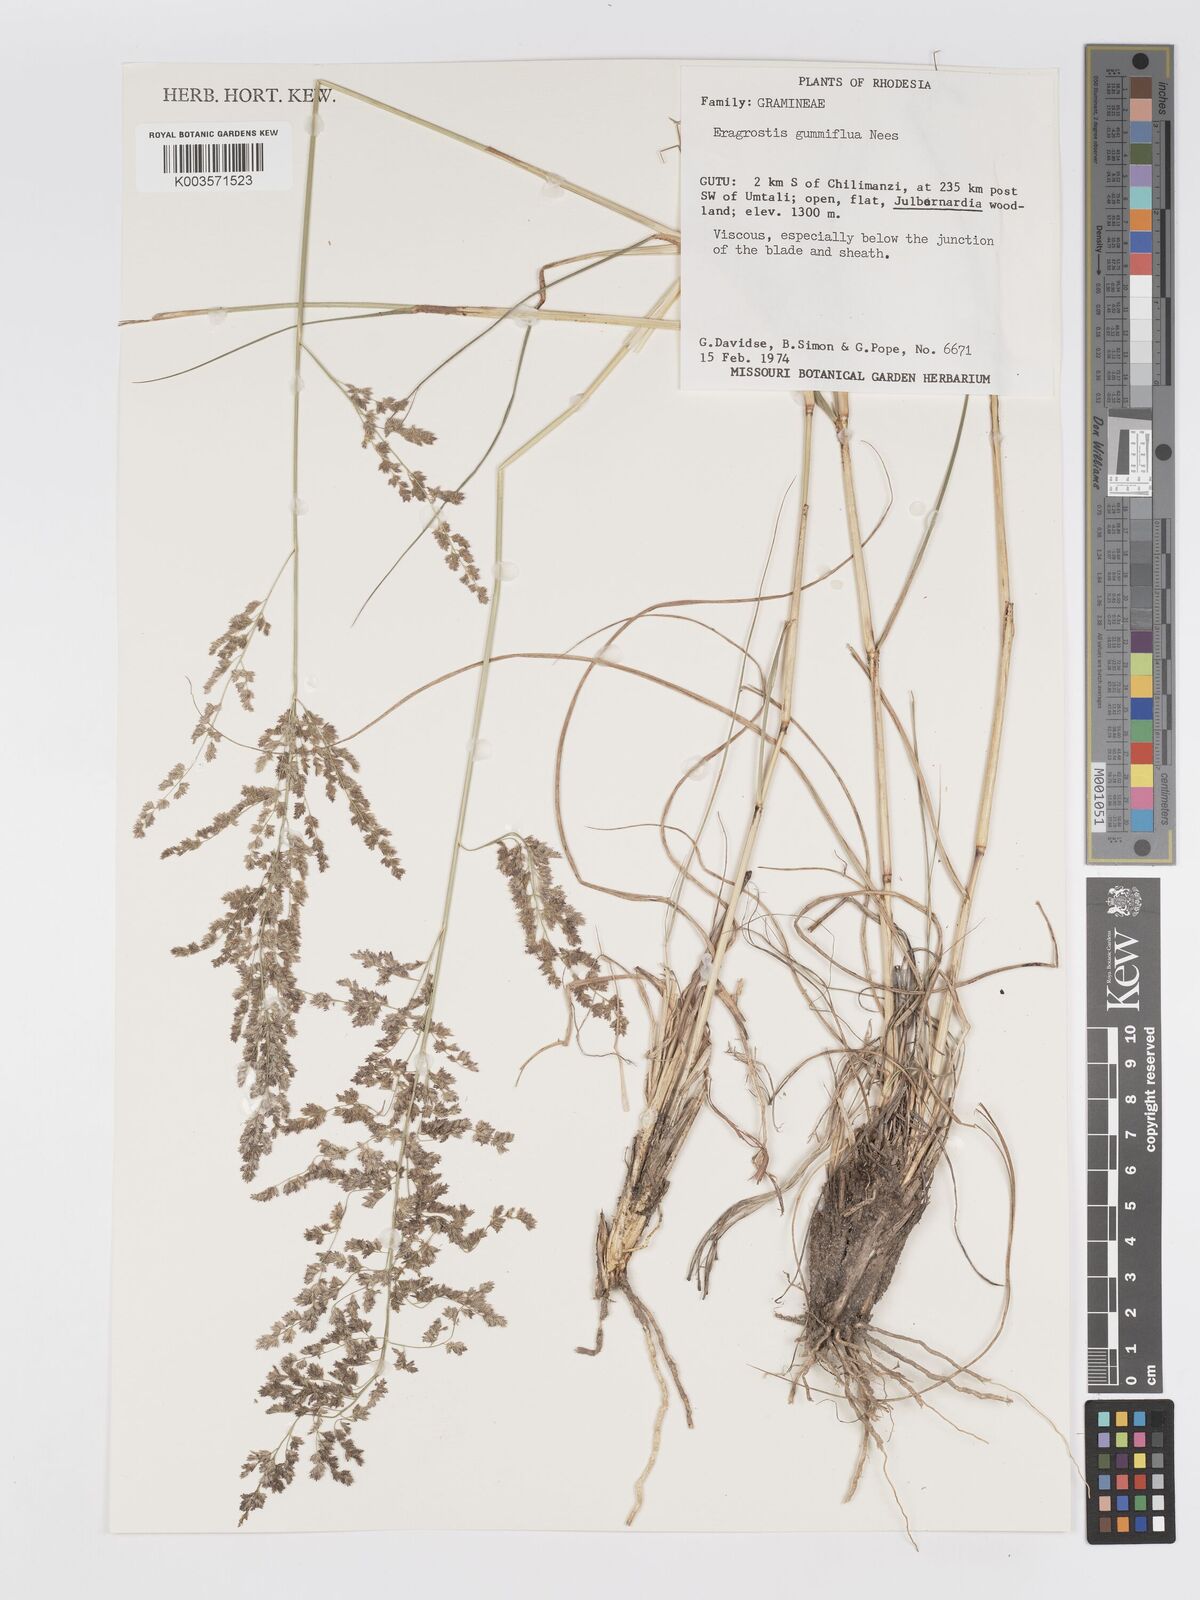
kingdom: Plantae
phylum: Tracheophyta
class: Liliopsida
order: Poales
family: Poaceae
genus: Eragrostis
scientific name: Eragrostis gummiflua
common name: Gum grass
